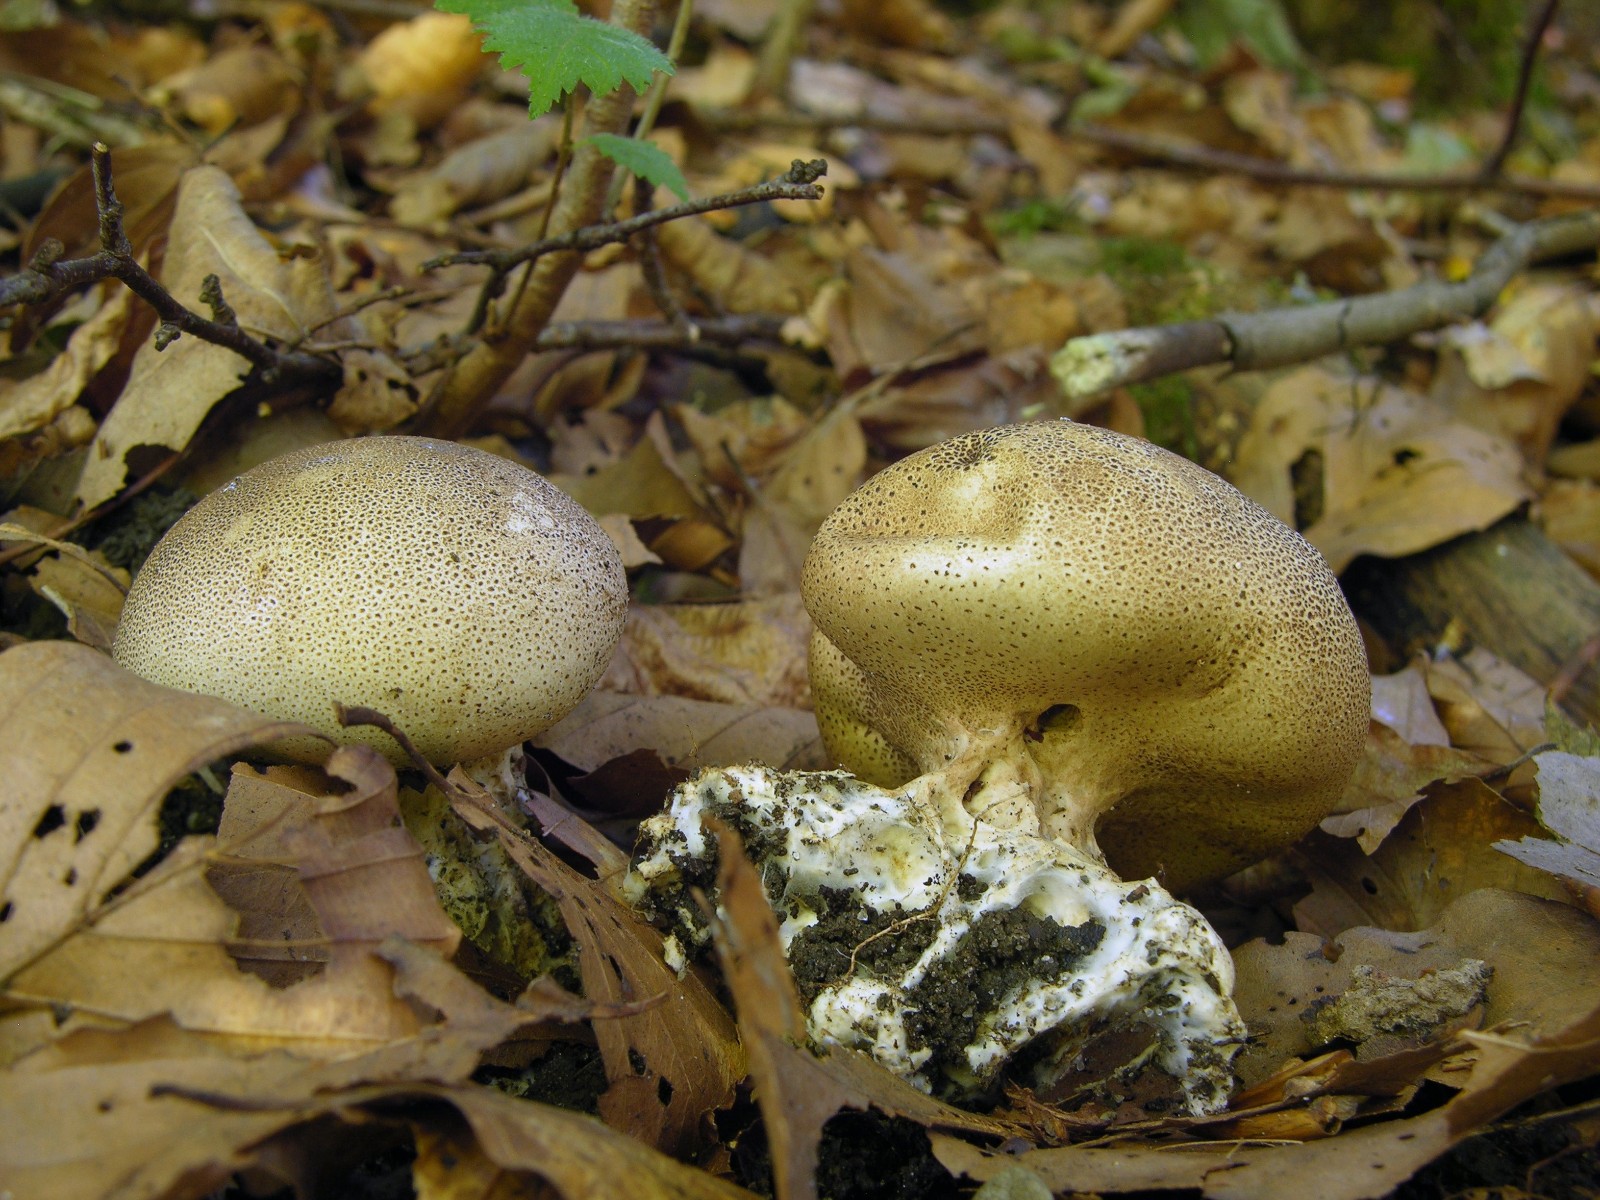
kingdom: Fungi
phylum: Basidiomycota
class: Agaricomycetes
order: Boletales
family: Sclerodermataceae
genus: Scleroderma
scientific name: Scleroderma verrucosum
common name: stilket bruskbold
